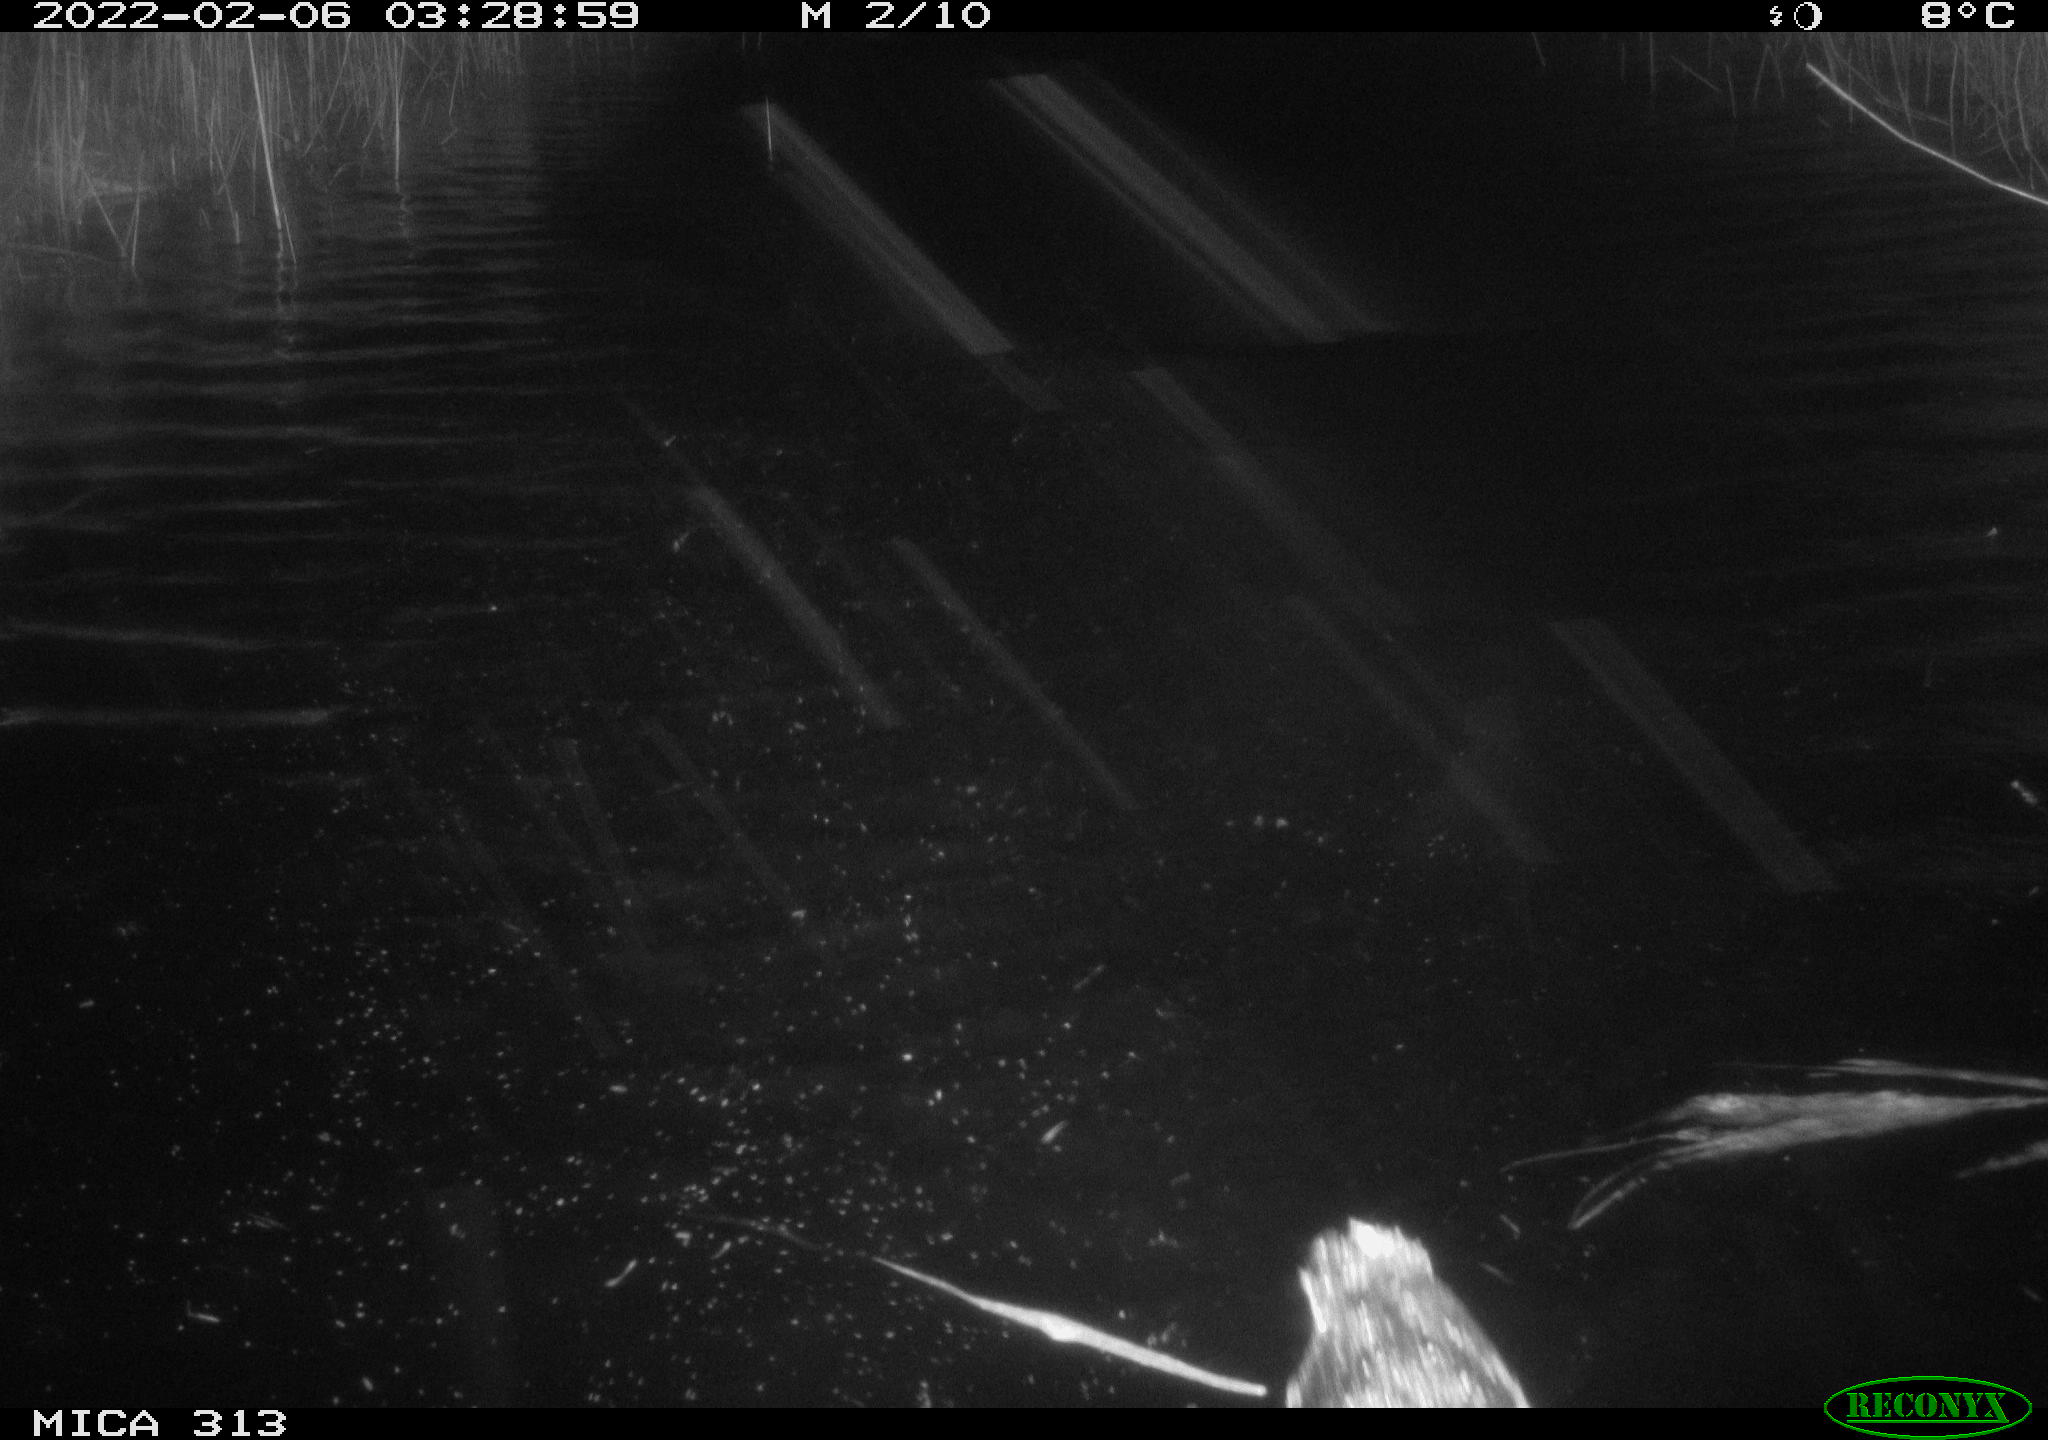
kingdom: Animalia
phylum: Chordata
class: Aves
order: Gruiformes
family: Rallidae
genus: Gallinula
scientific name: Gallinula chloropus
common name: Common moorhen
